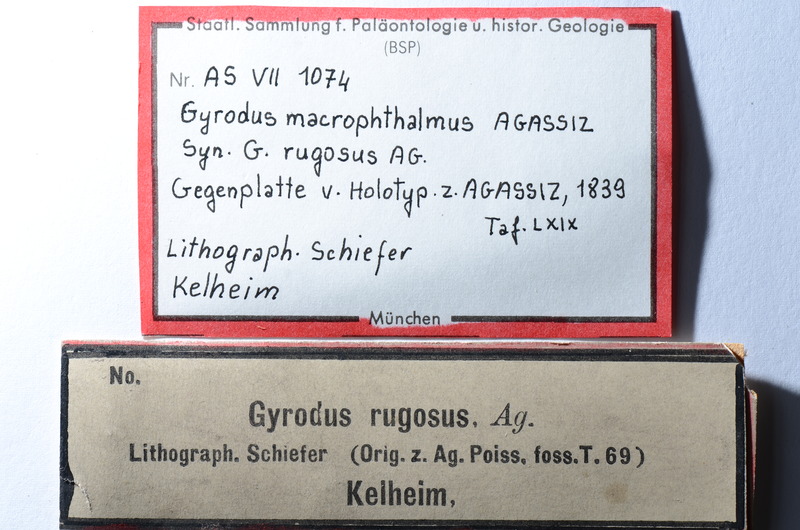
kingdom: Animalia
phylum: Chordata
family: Gyrodontidae
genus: Gyrodus
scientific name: Gyrodus hexagonus
